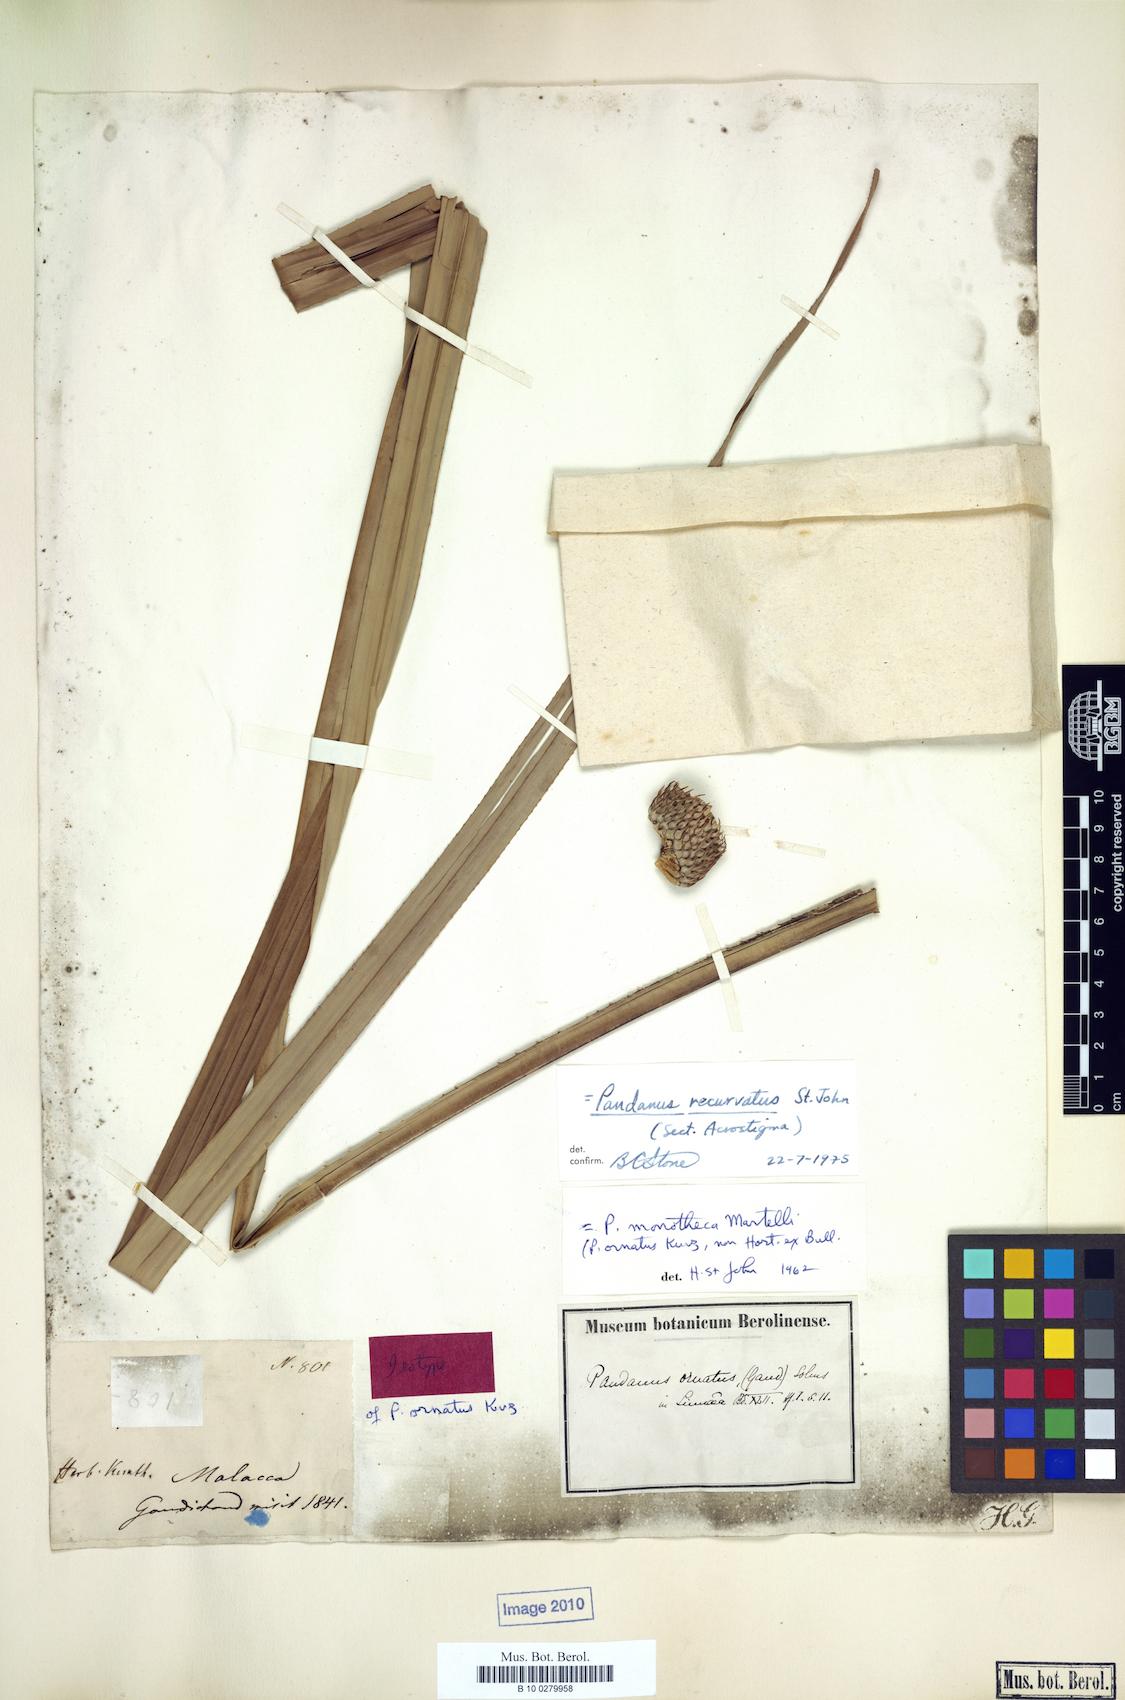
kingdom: Plantae
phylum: Tracheophyta
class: Liliopsida
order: Pandanales
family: Pandanaceae
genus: Pandanus
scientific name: Pandanus ornatus
